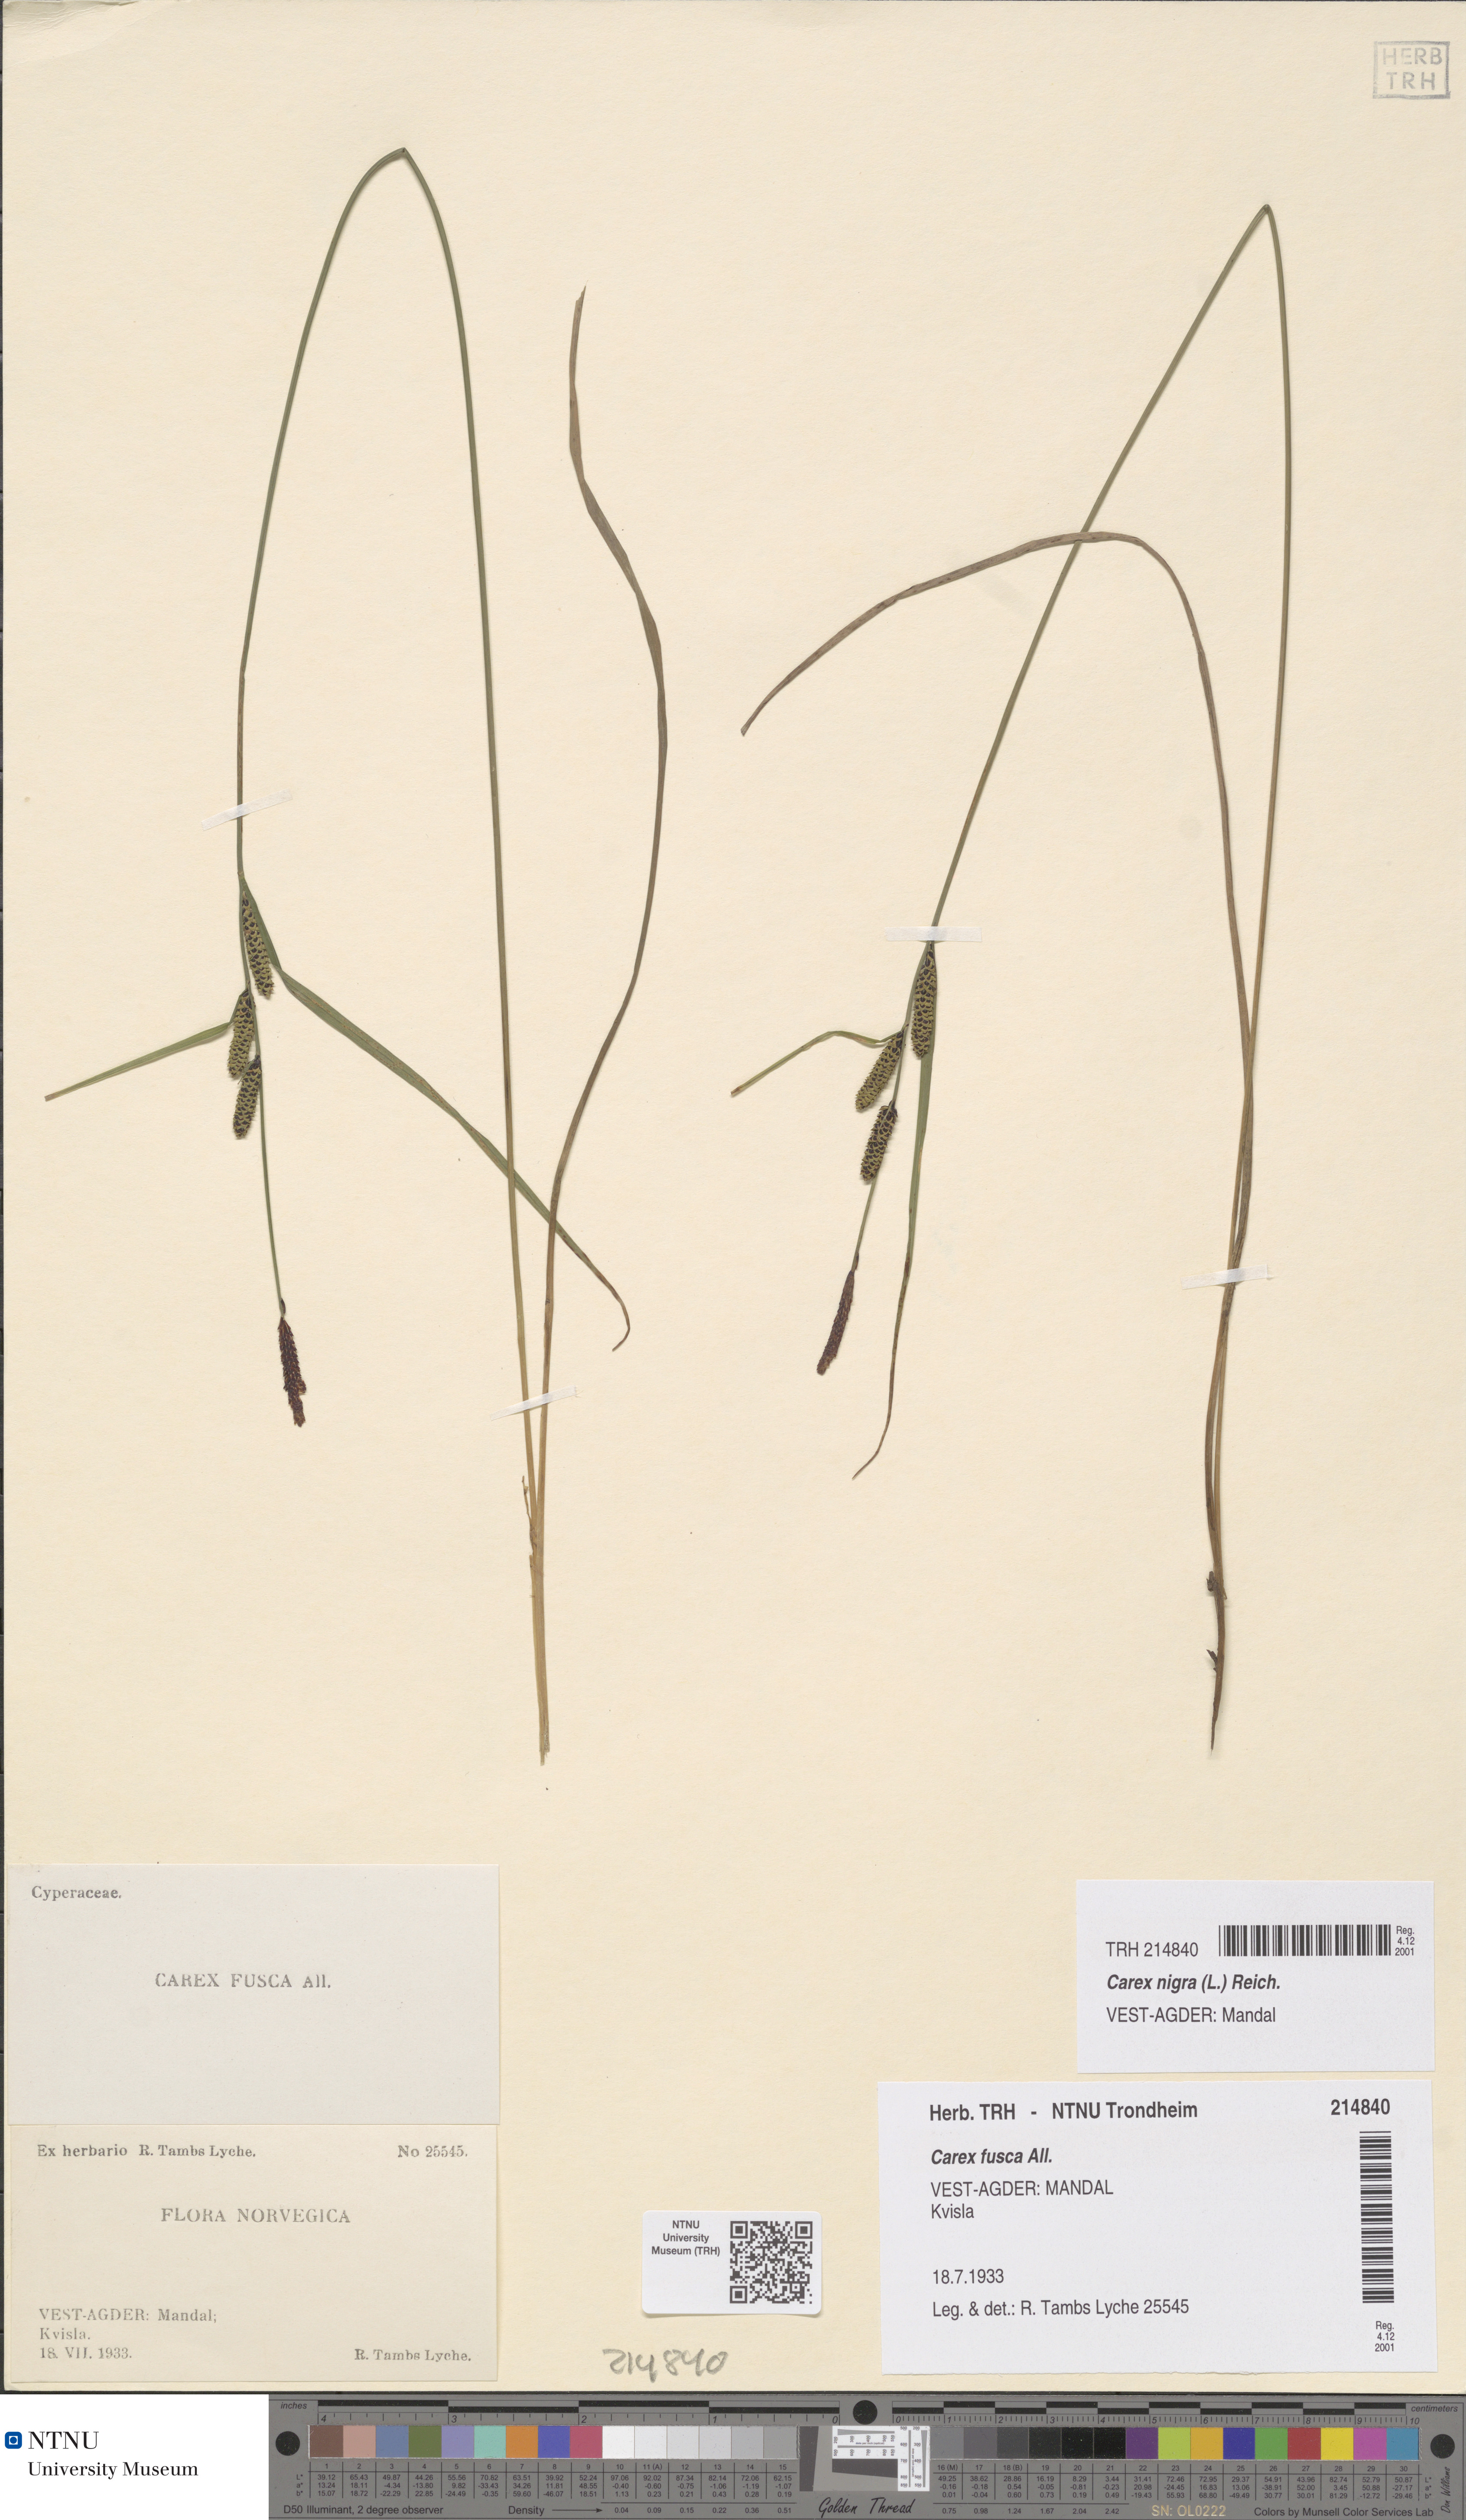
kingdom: Plantae
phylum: Tracheophyta
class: Liliopsida
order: Poales
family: Cyperaceae
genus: Carex
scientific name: Carex nigra
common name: Common sedge
